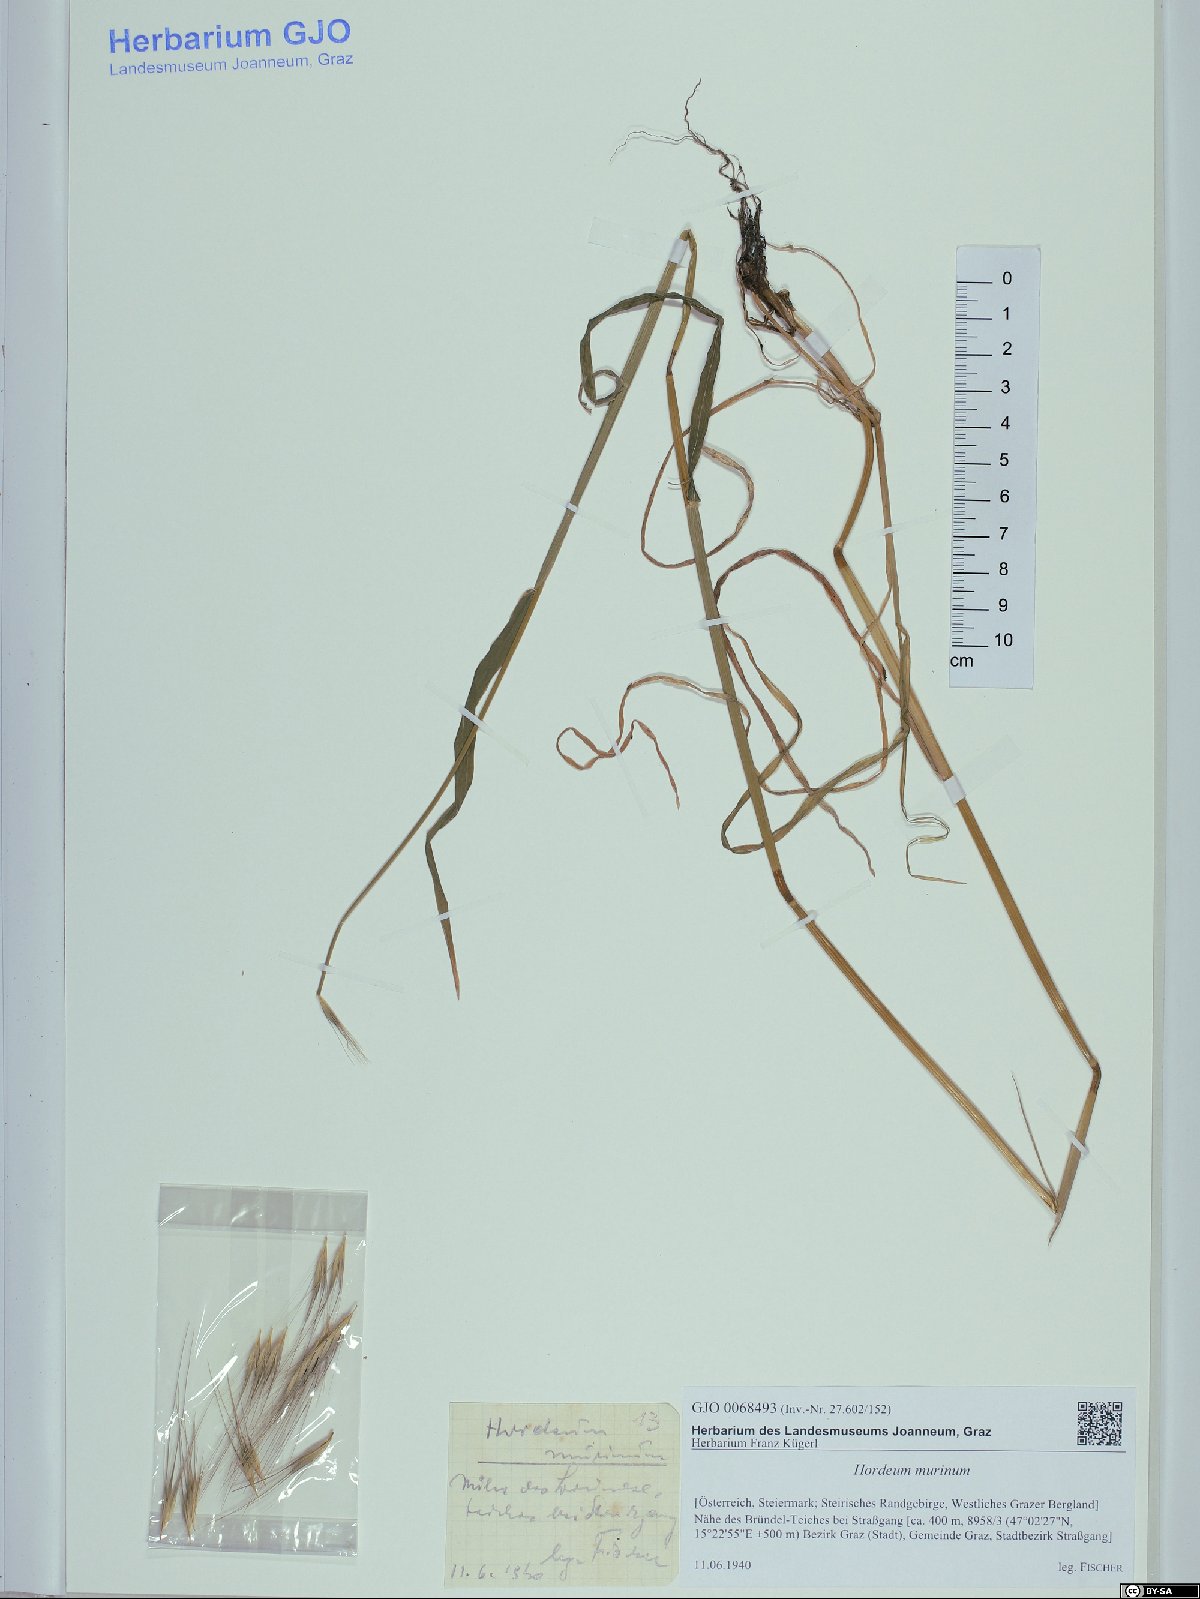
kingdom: Plantae
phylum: Tracheophyta
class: Liliopsida
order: Poales
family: Poaceae
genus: Hordeum
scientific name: Hordeum murinum
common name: Wall barley
